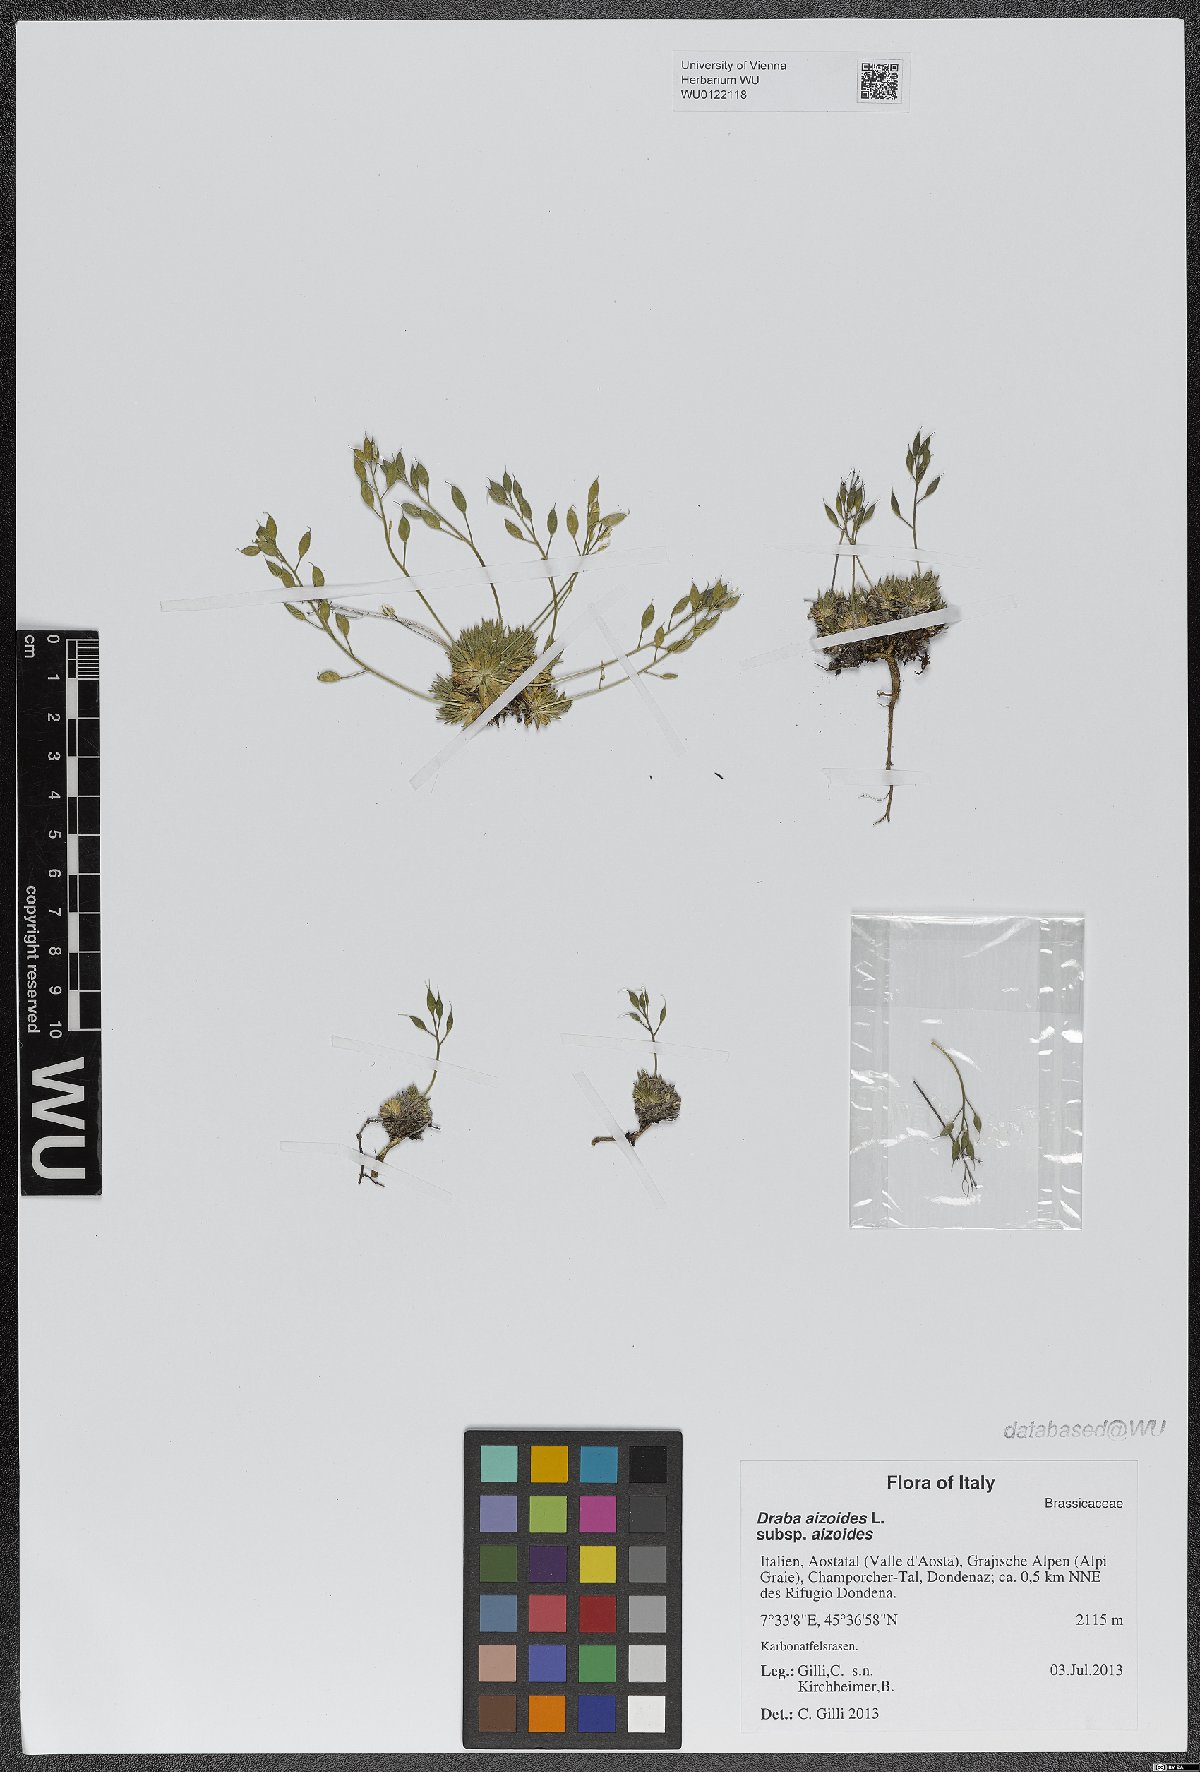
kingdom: Plantae
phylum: Tracheophyta
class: Magnoliopsida
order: Brassicales
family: Brassicaceae
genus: Draba
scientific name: Draba aizoides
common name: Yellow whitlowgrass
